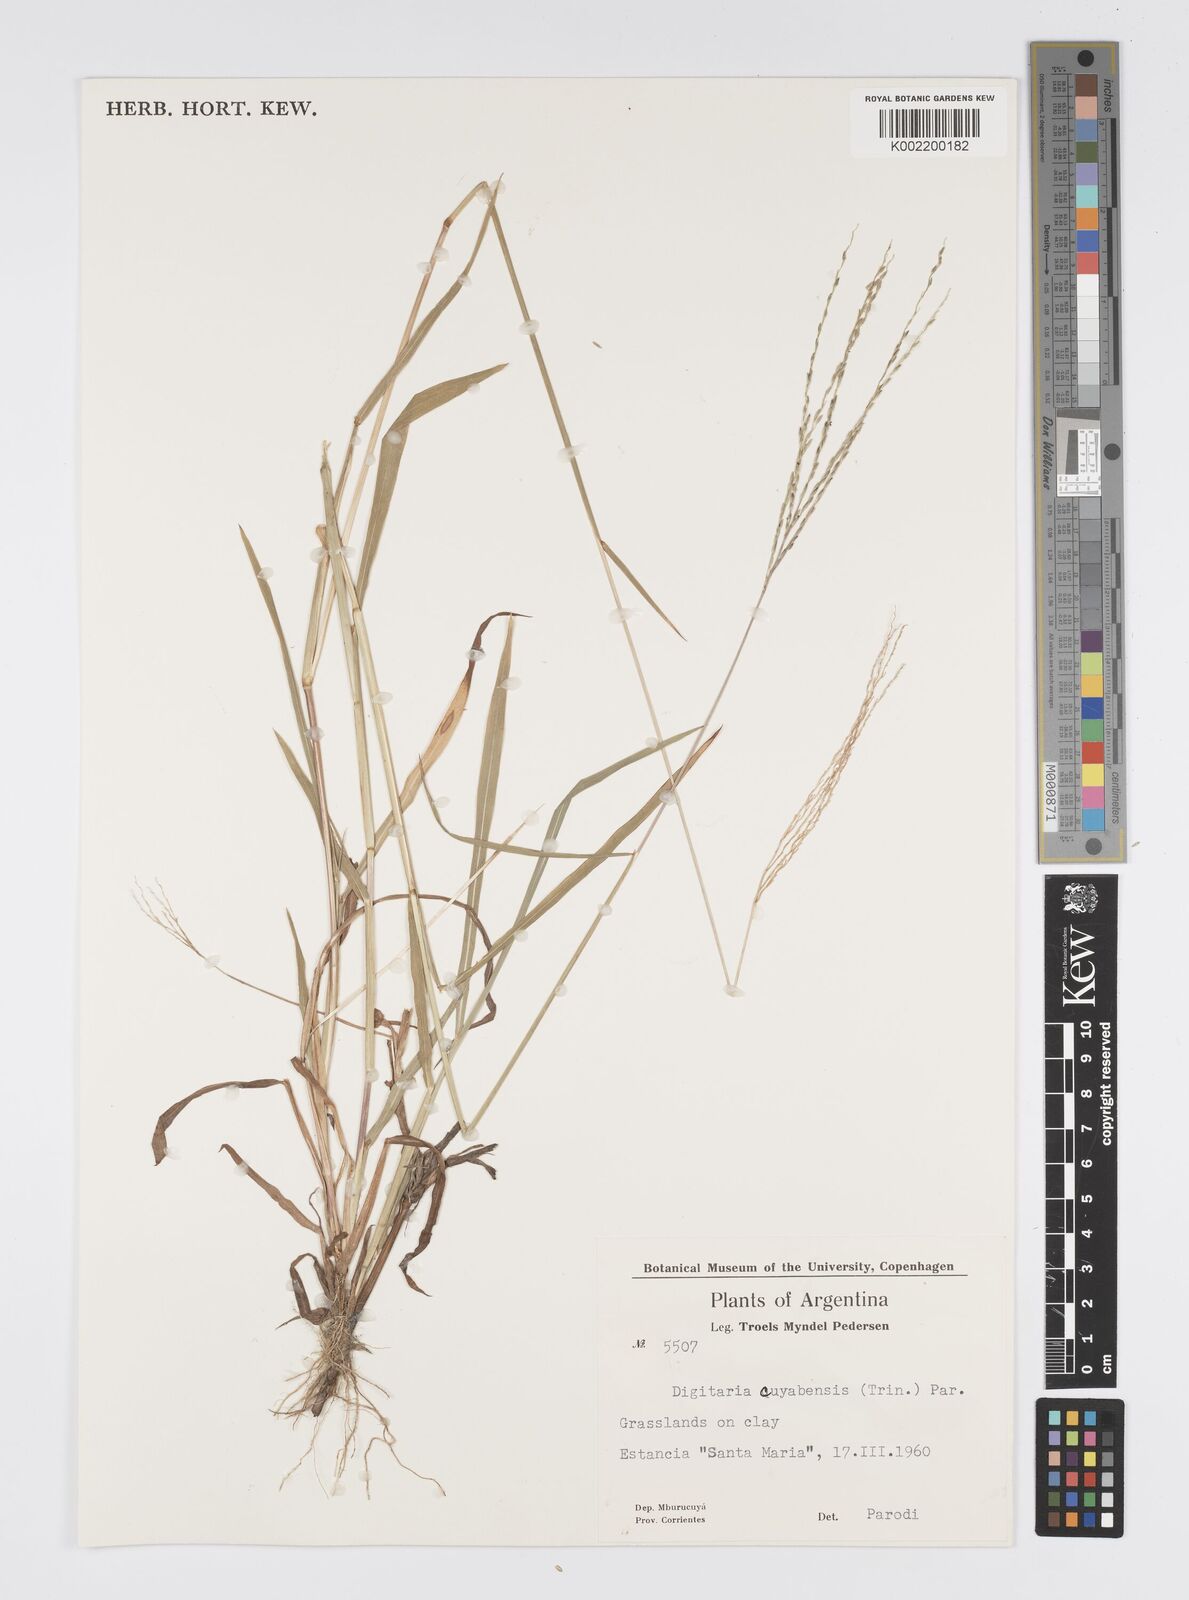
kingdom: Plantae
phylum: Tracheophyta
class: Liliopsida
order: Poales
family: Poaceae
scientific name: Poaceae
